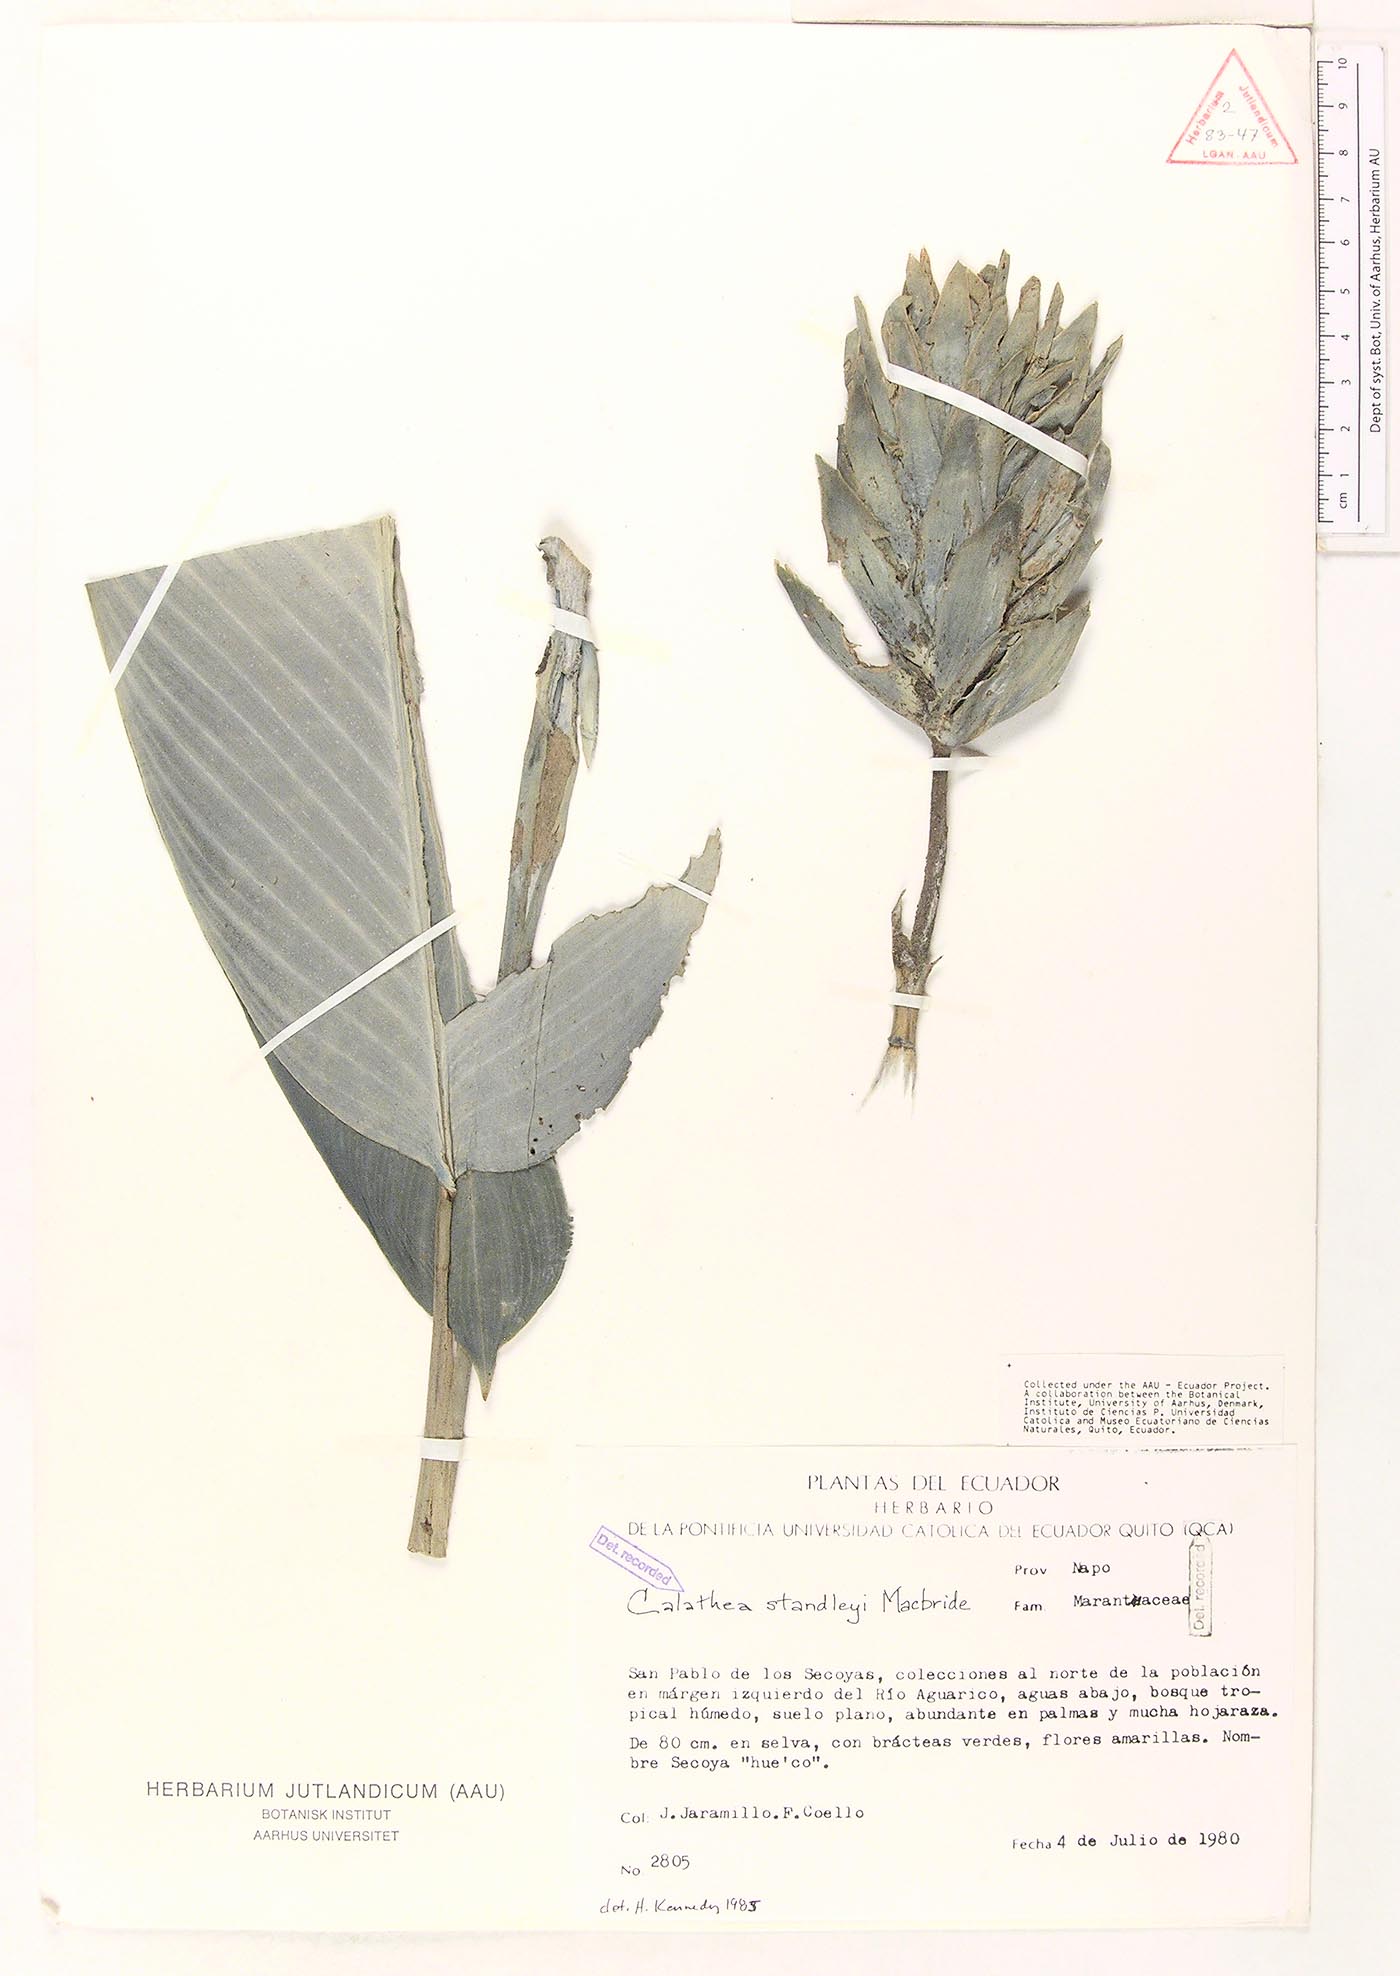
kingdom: Plantae
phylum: Tracheophyta
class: Liliopsida
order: Zingiberales
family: Marantaceae
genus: Goeppertia
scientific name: Goeppertia standleyi
